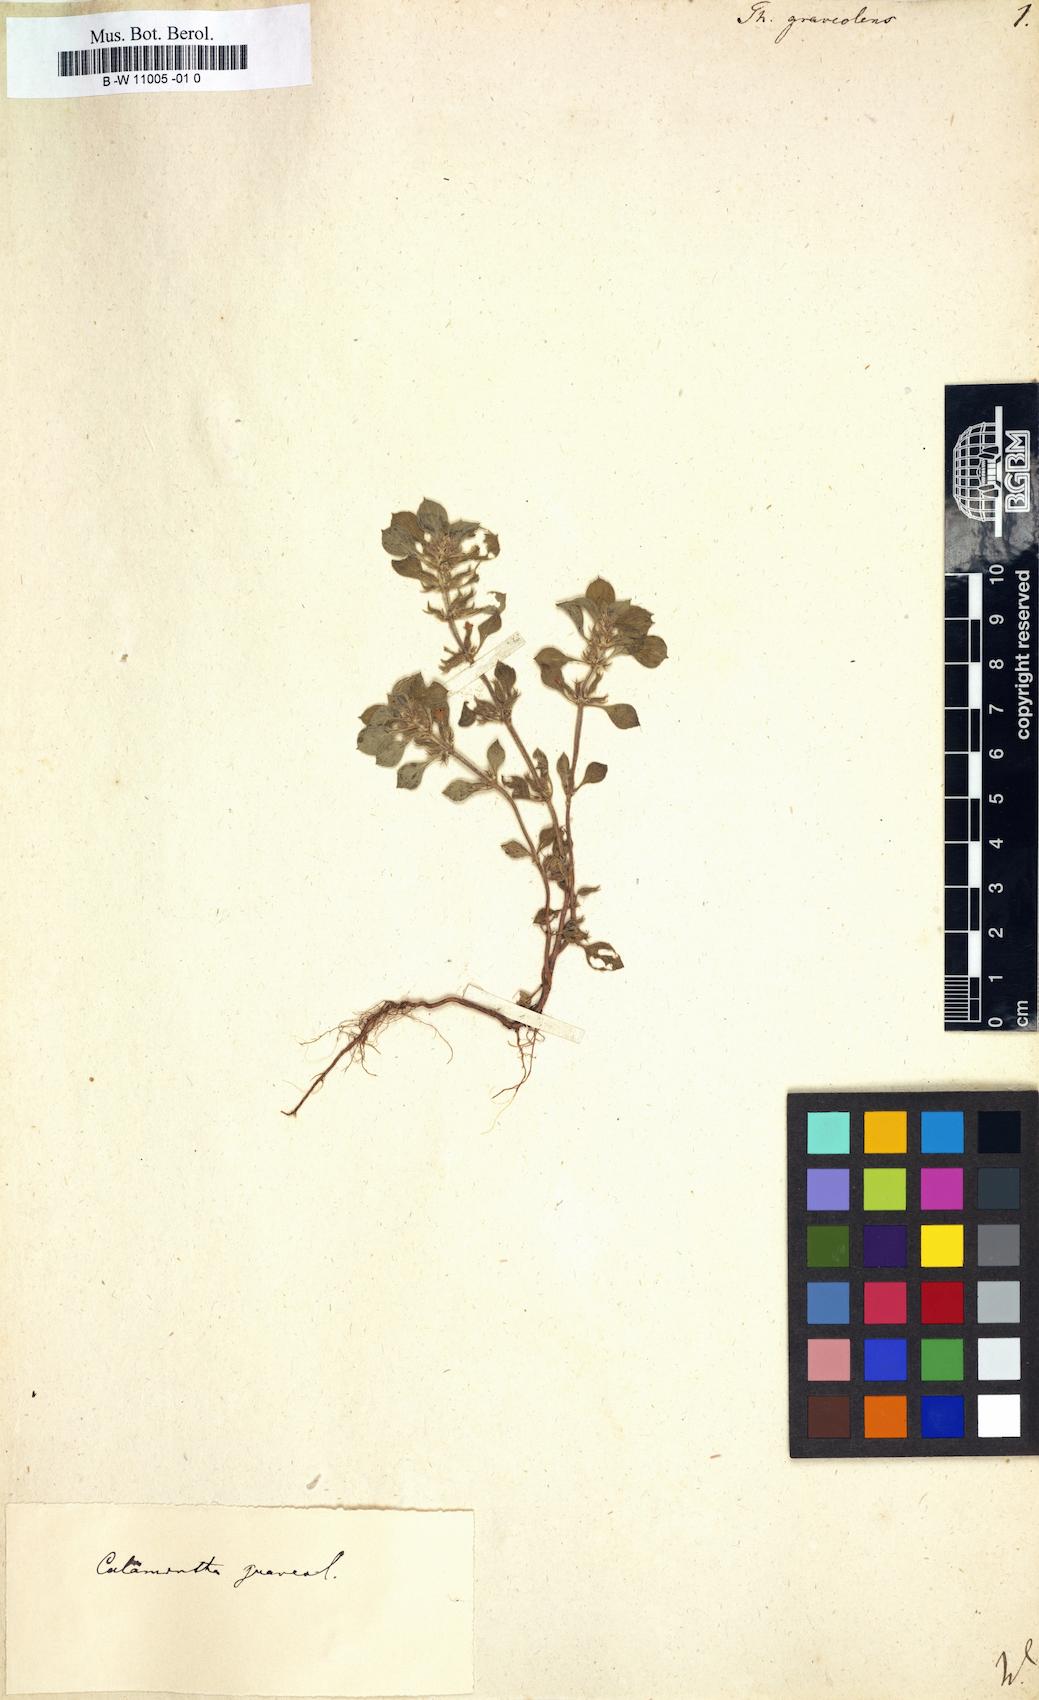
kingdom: Plantae
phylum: Tracheophyta
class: Magnoliopsida
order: Lamiales
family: Lamiaceae
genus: Thymus
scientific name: Thymus graveolens
